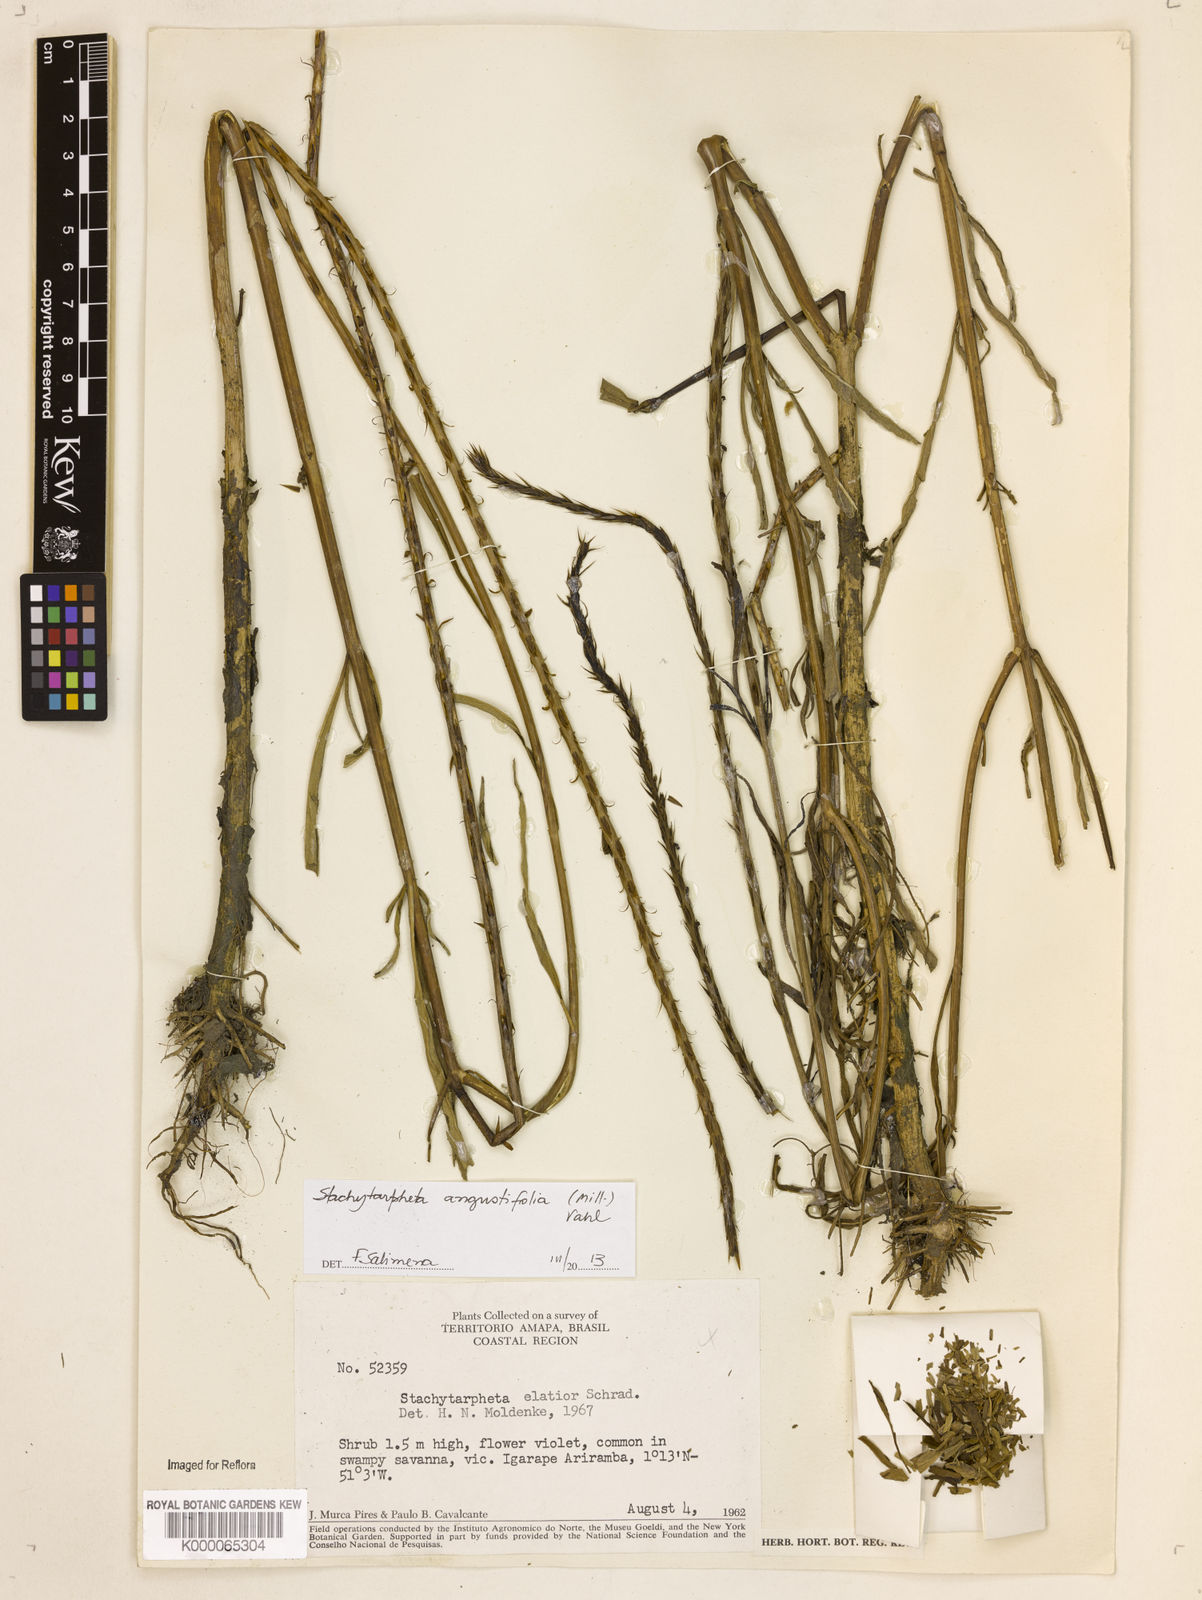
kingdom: Plantae
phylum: Tracheophyta
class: Magnoliopsida
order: Lamiales
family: Verbenaceae
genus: Stachytarpheta
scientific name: Stachytarpheta indica
